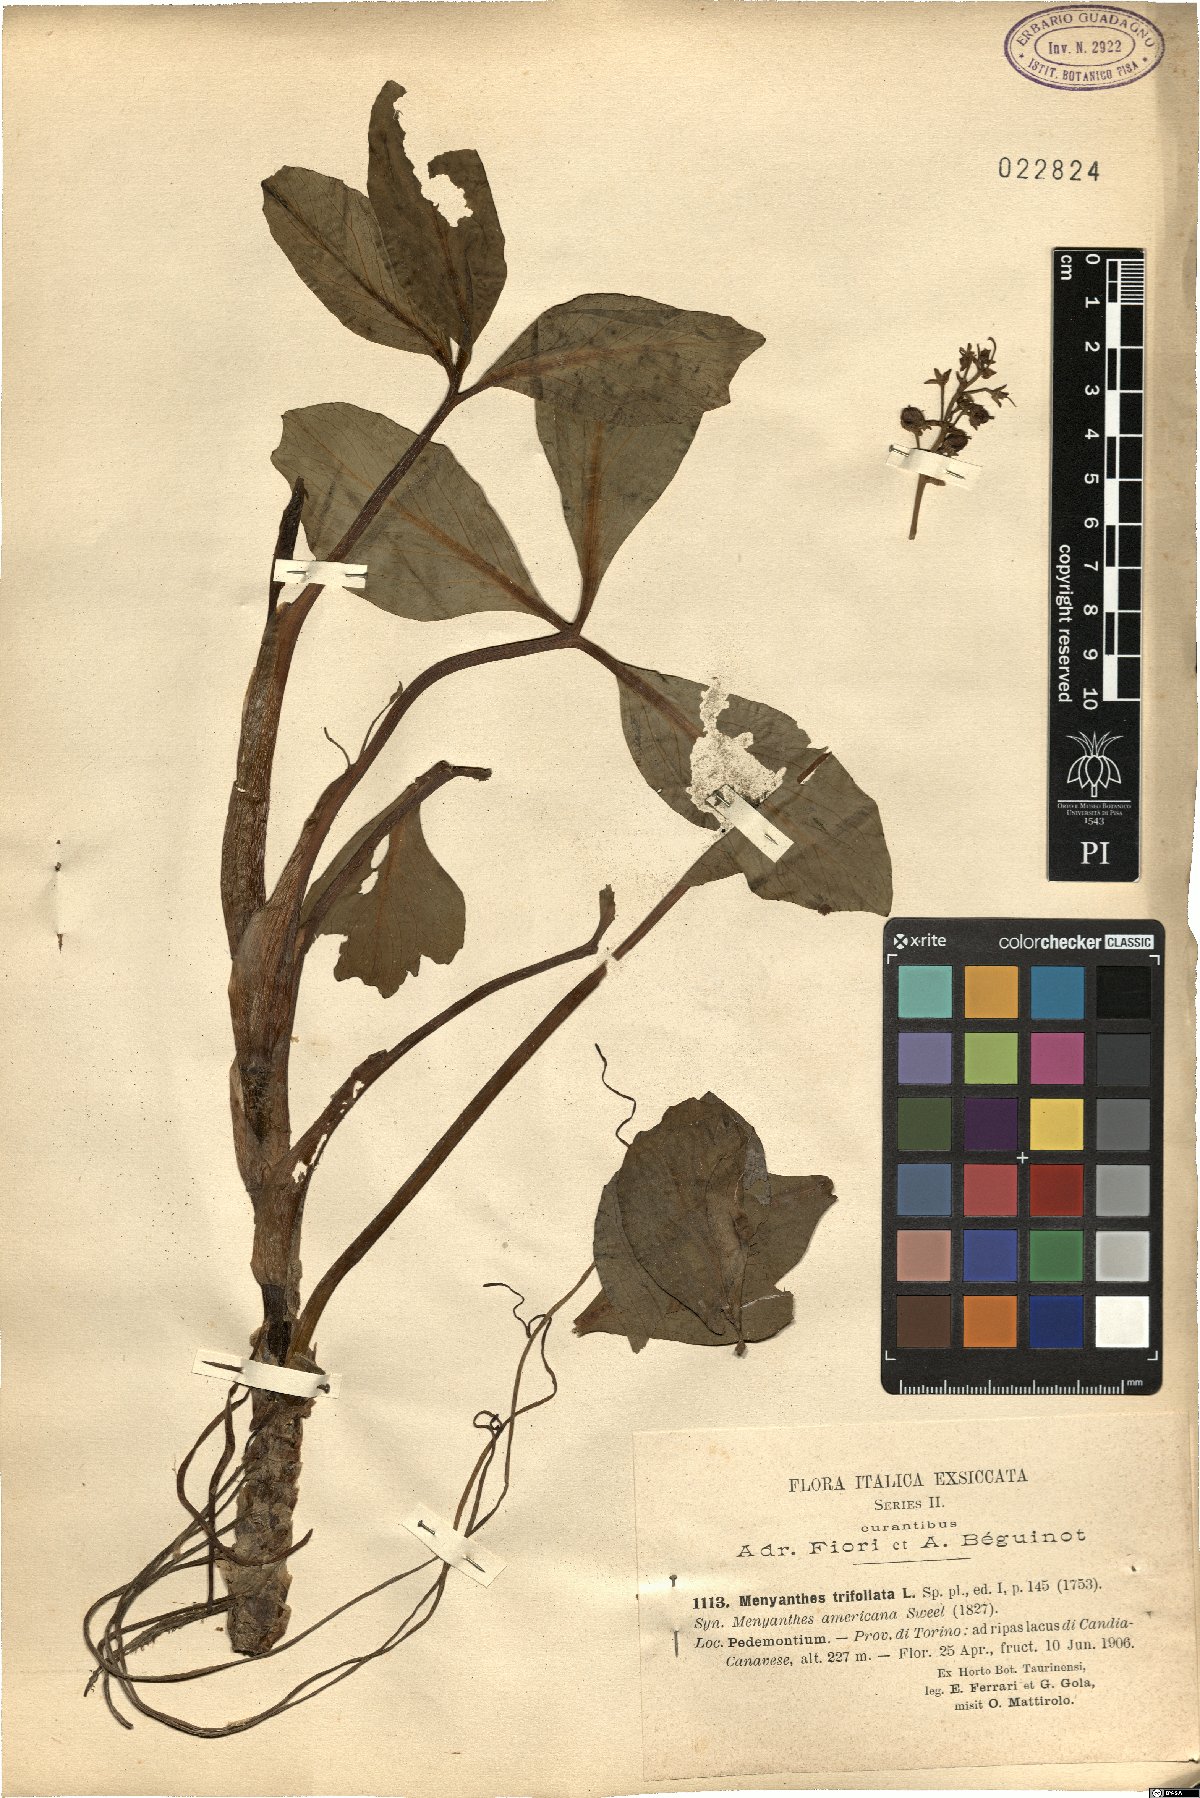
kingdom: Plantae
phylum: Tracheophyta
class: Magnoliopsida
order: Asterales
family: Menyanthaceae
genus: Menyanthes
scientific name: Menyanthes trifoliata
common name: Bogbean
